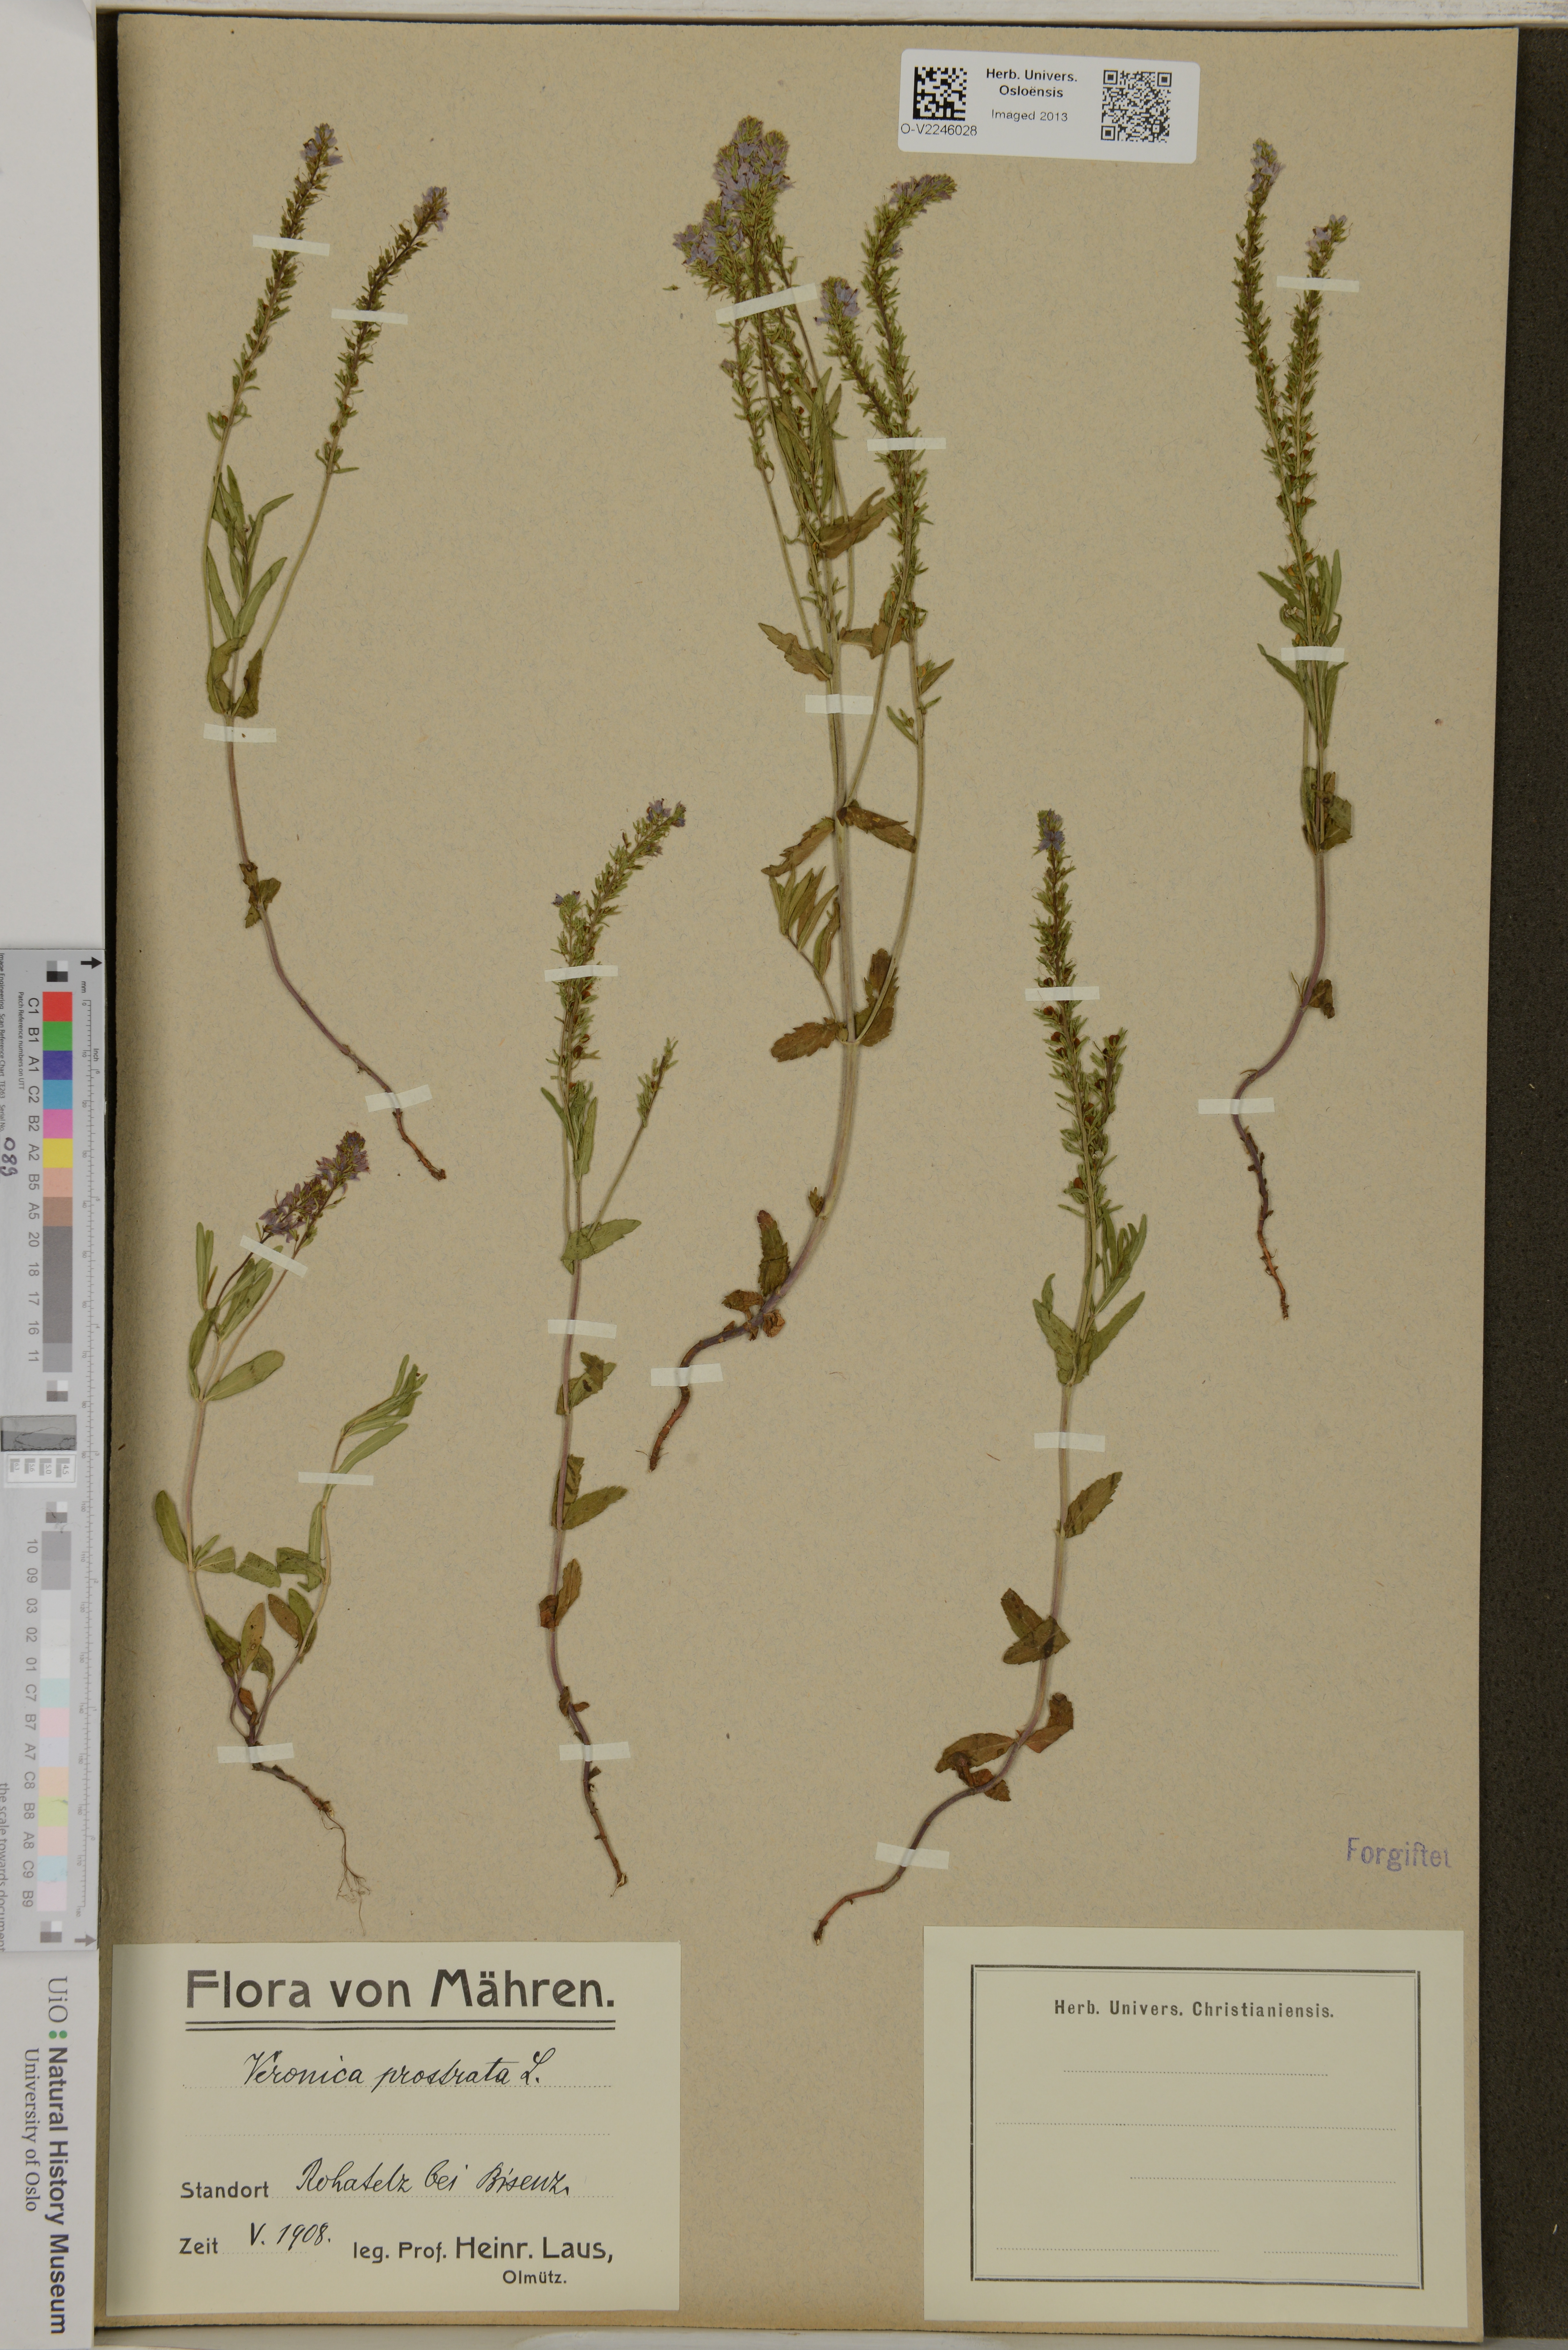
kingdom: Plantae
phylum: Tracheophyta
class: Magnoliopsida
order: Lamiales
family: Plantaginaceae
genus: Veronica
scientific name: Veronica prostrata
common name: Prostrate speedwell
